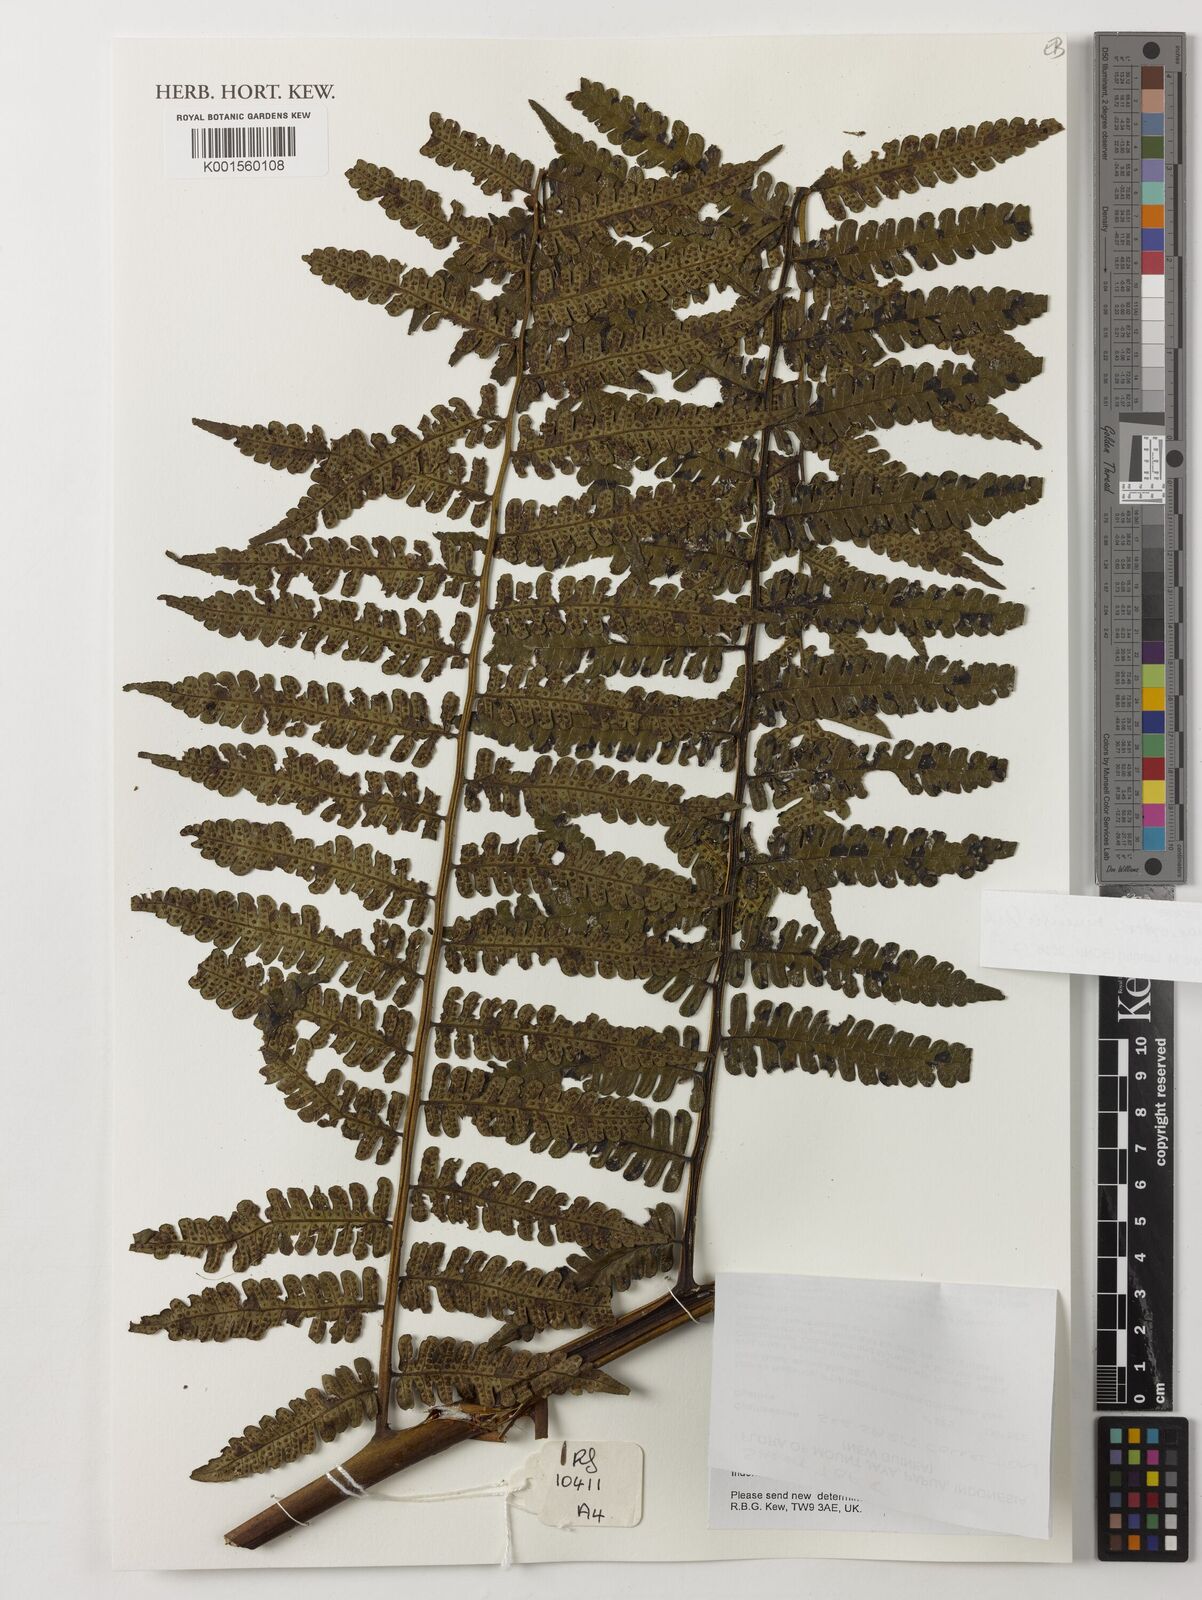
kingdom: Plantae
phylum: Tracheophyta
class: Polypodiopsida
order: Cyatheales
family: Cyatheaceae
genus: Sphaeropteris
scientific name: Sphaeropteris runensis
